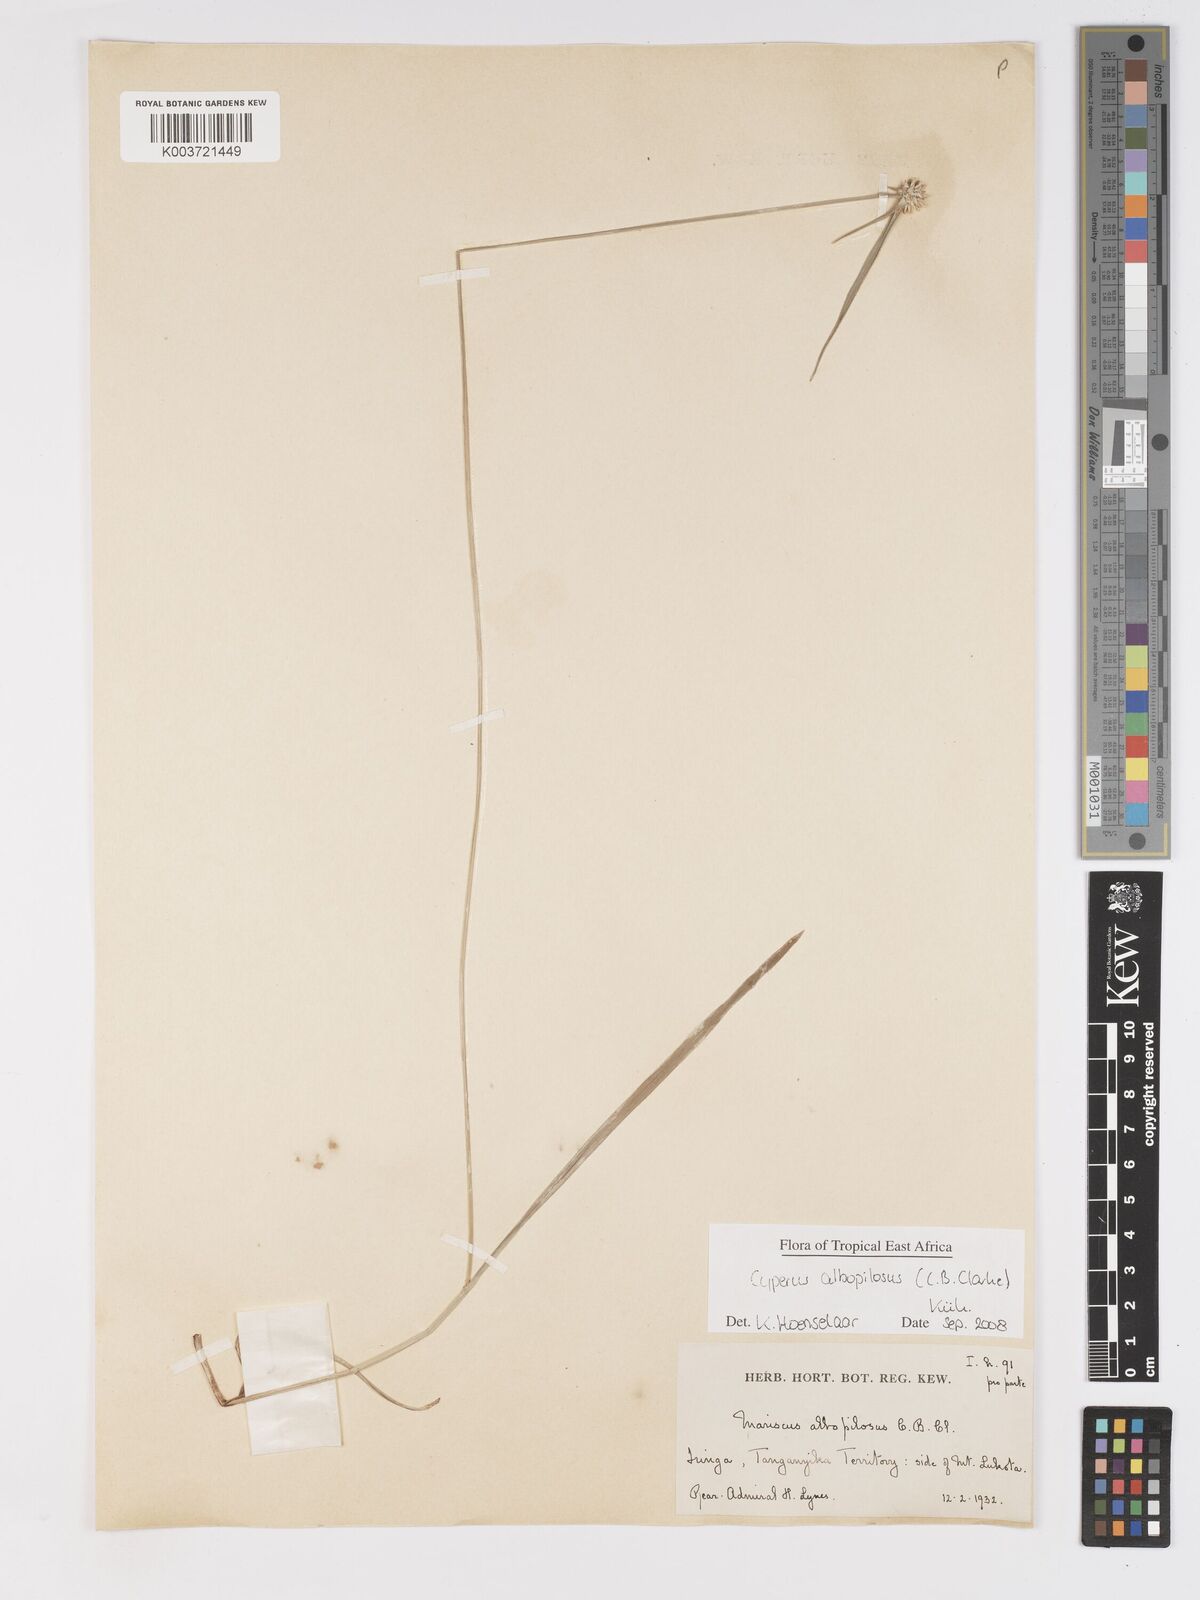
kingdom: Plantae
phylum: Tracheophyta
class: Liliopsida
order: Poales
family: Cyperaceae
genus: Cyperus
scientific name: Cyperus albopilosus
